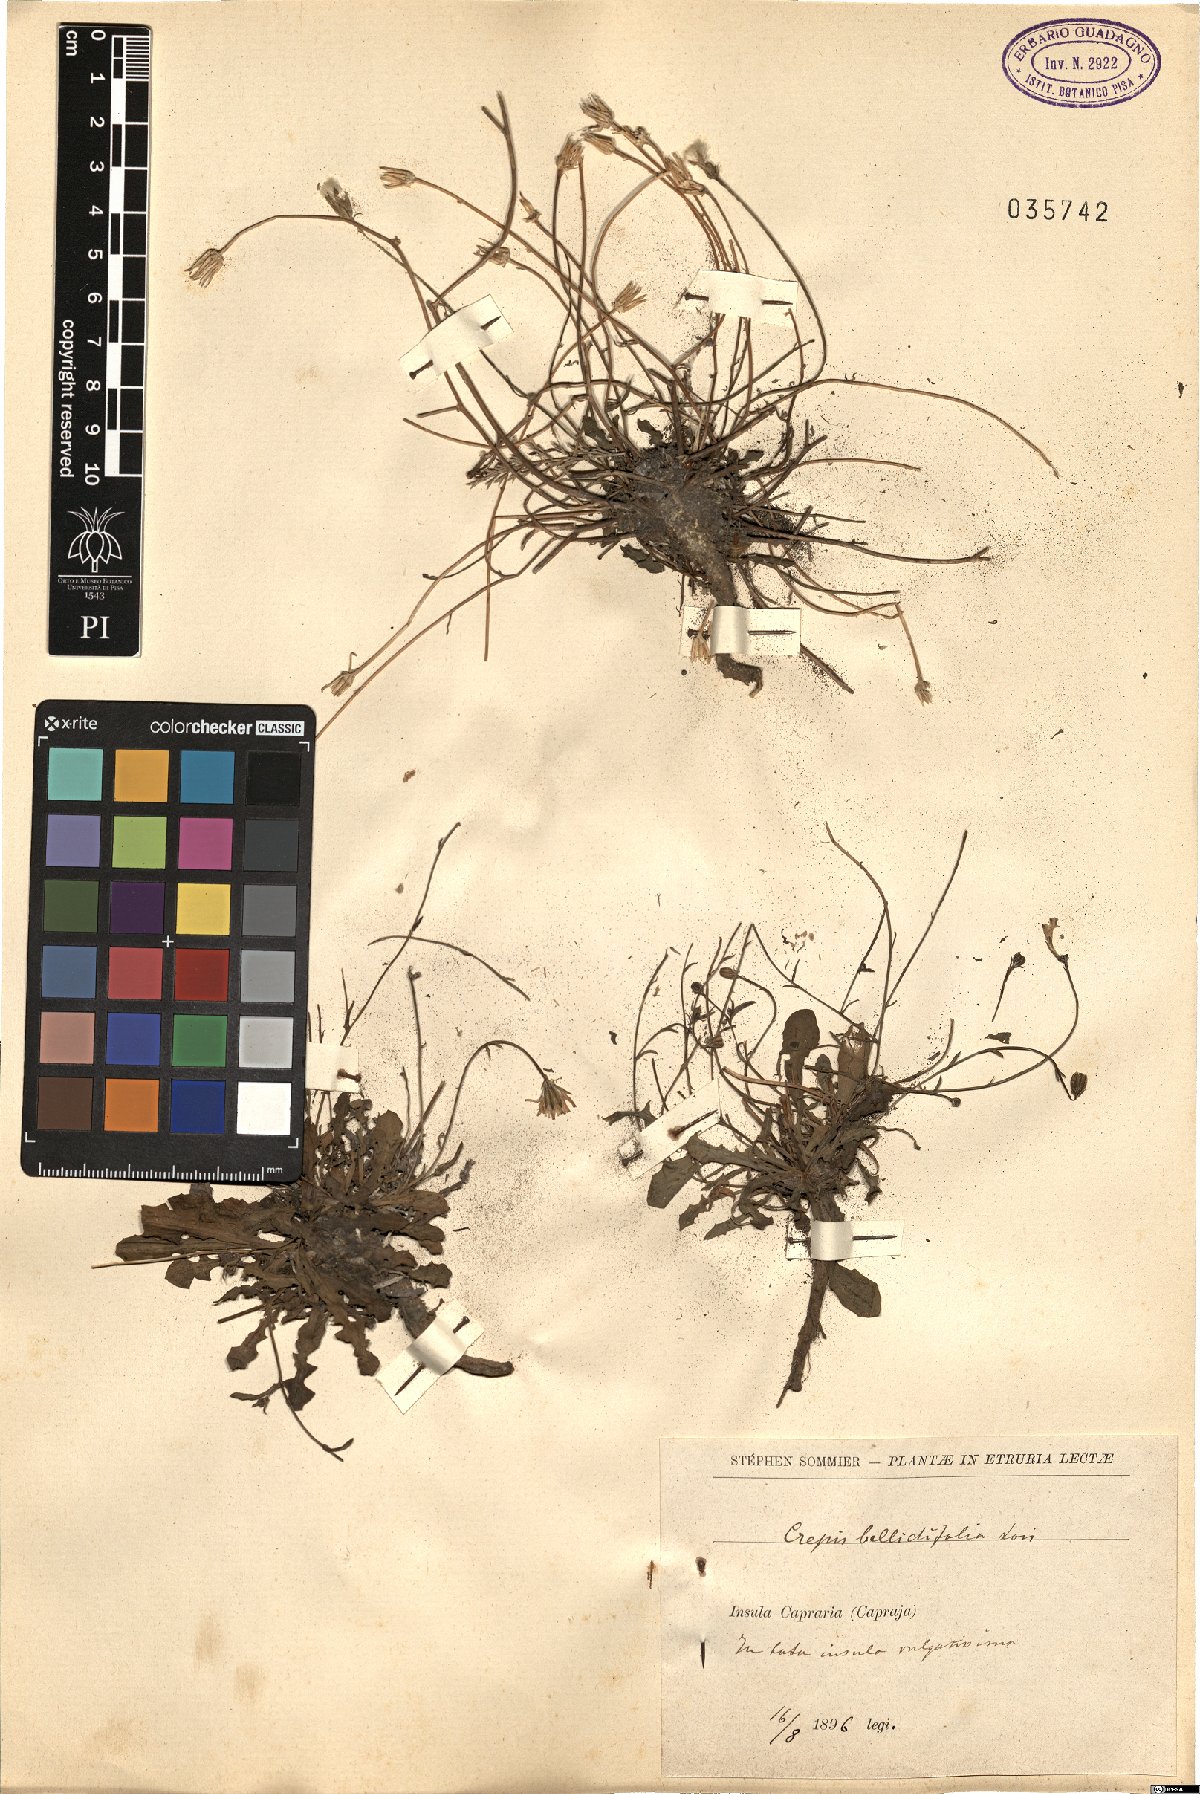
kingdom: Plantae
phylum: Tracheophyta
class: Magnoliopsida
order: Asterales
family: Asteraceae
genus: Crepis
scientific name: Crepis bellidifolia
